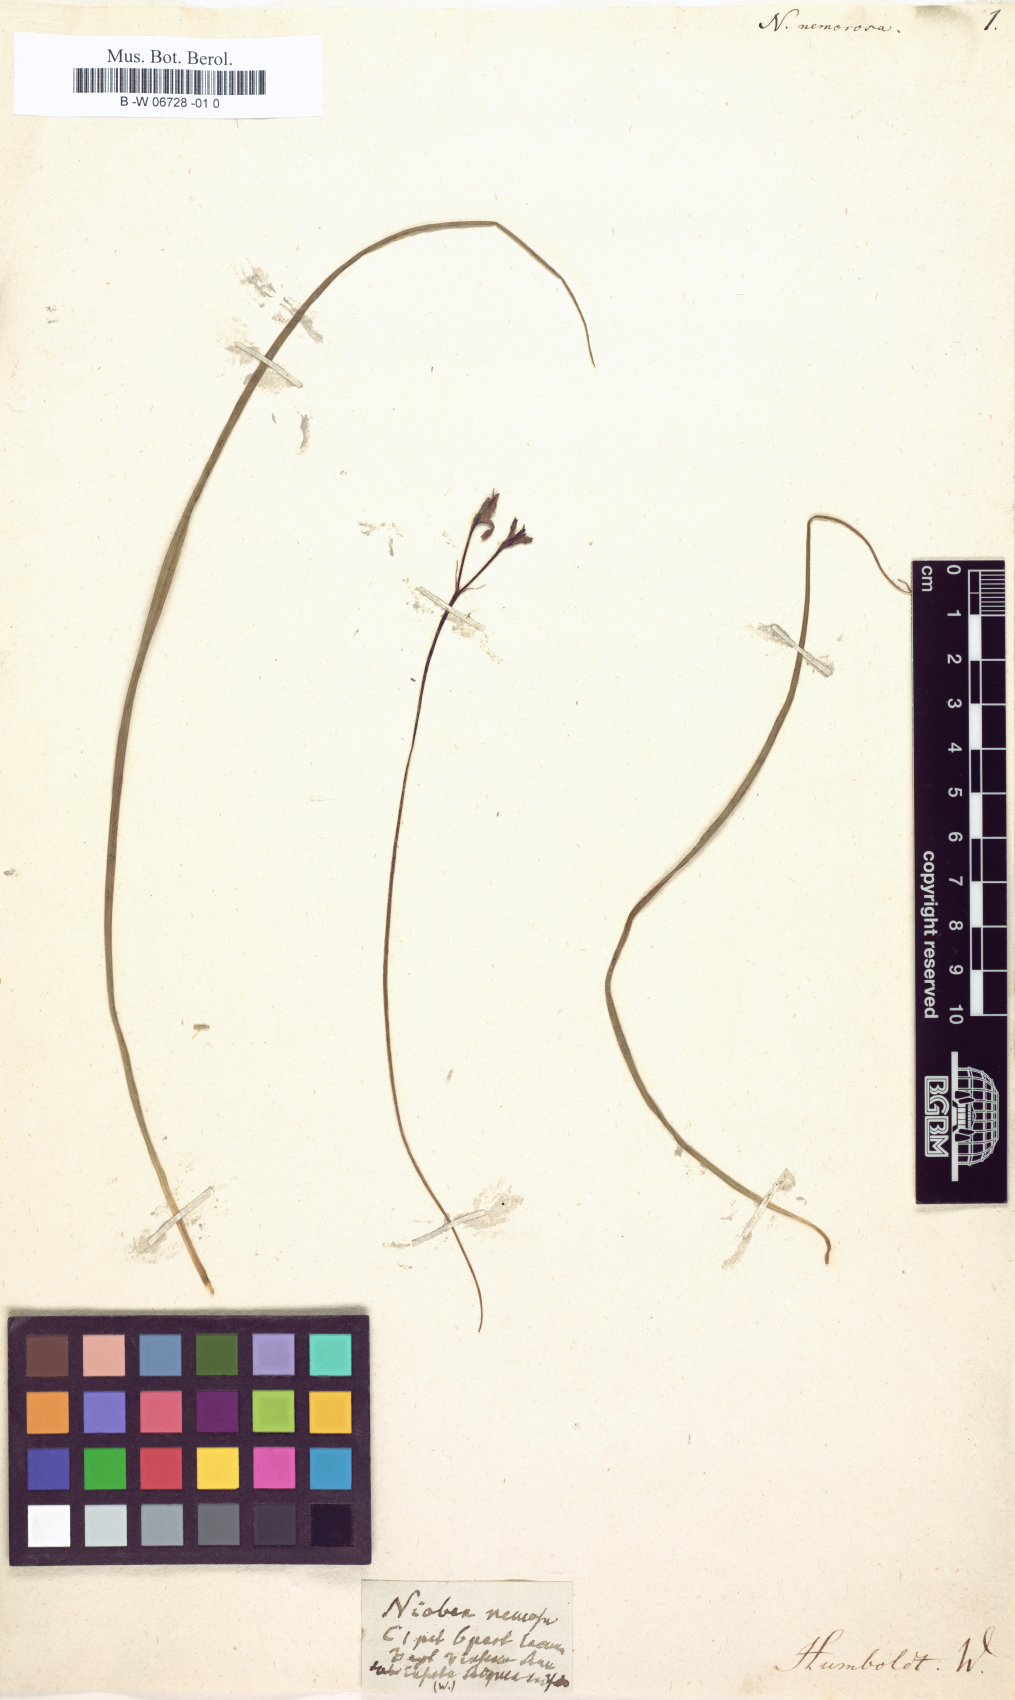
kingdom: Plantae
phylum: Tracheophyta
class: Liliopsida
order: Asparagales
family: Hypoxidaceae
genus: Hypoxis
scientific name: Hypoxis decumbens
